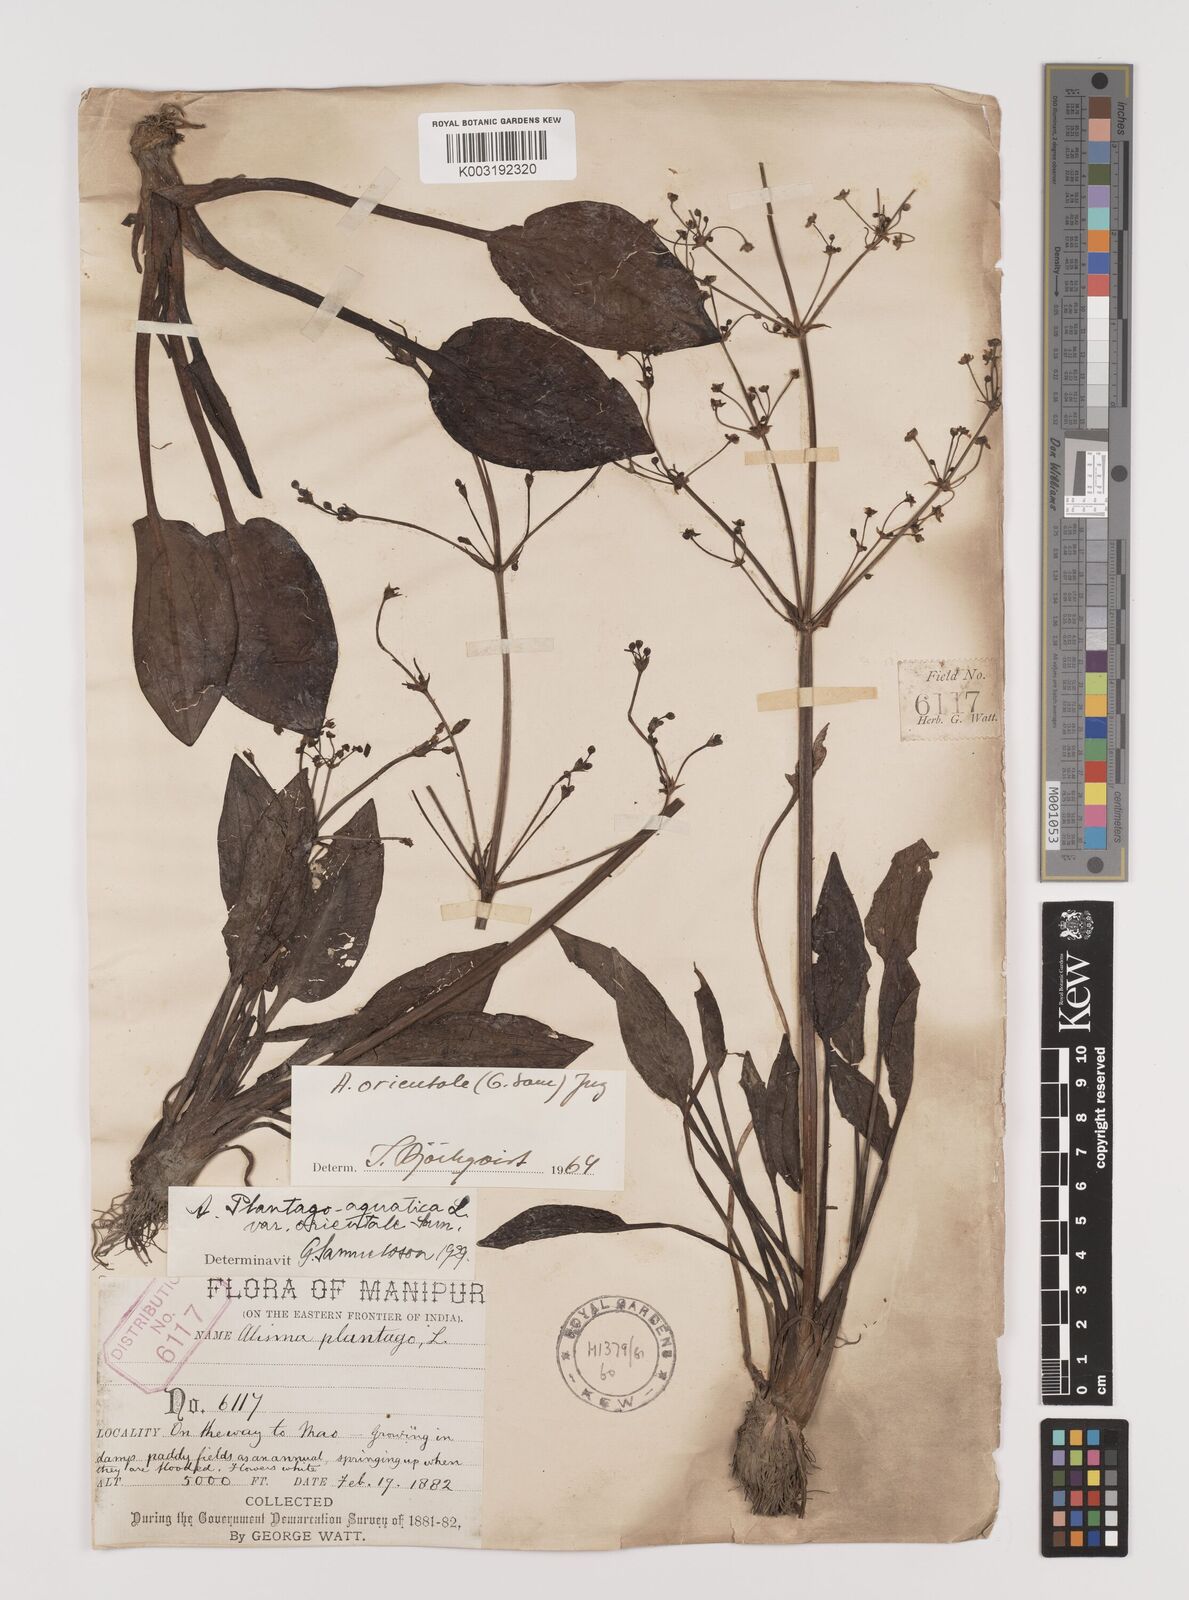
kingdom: Plantae
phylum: Tracheophyta
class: Liliopsida
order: Alismatales
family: Alismataceae
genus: Alisma
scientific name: Alisma plantago-aquatica
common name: Water-plantain
